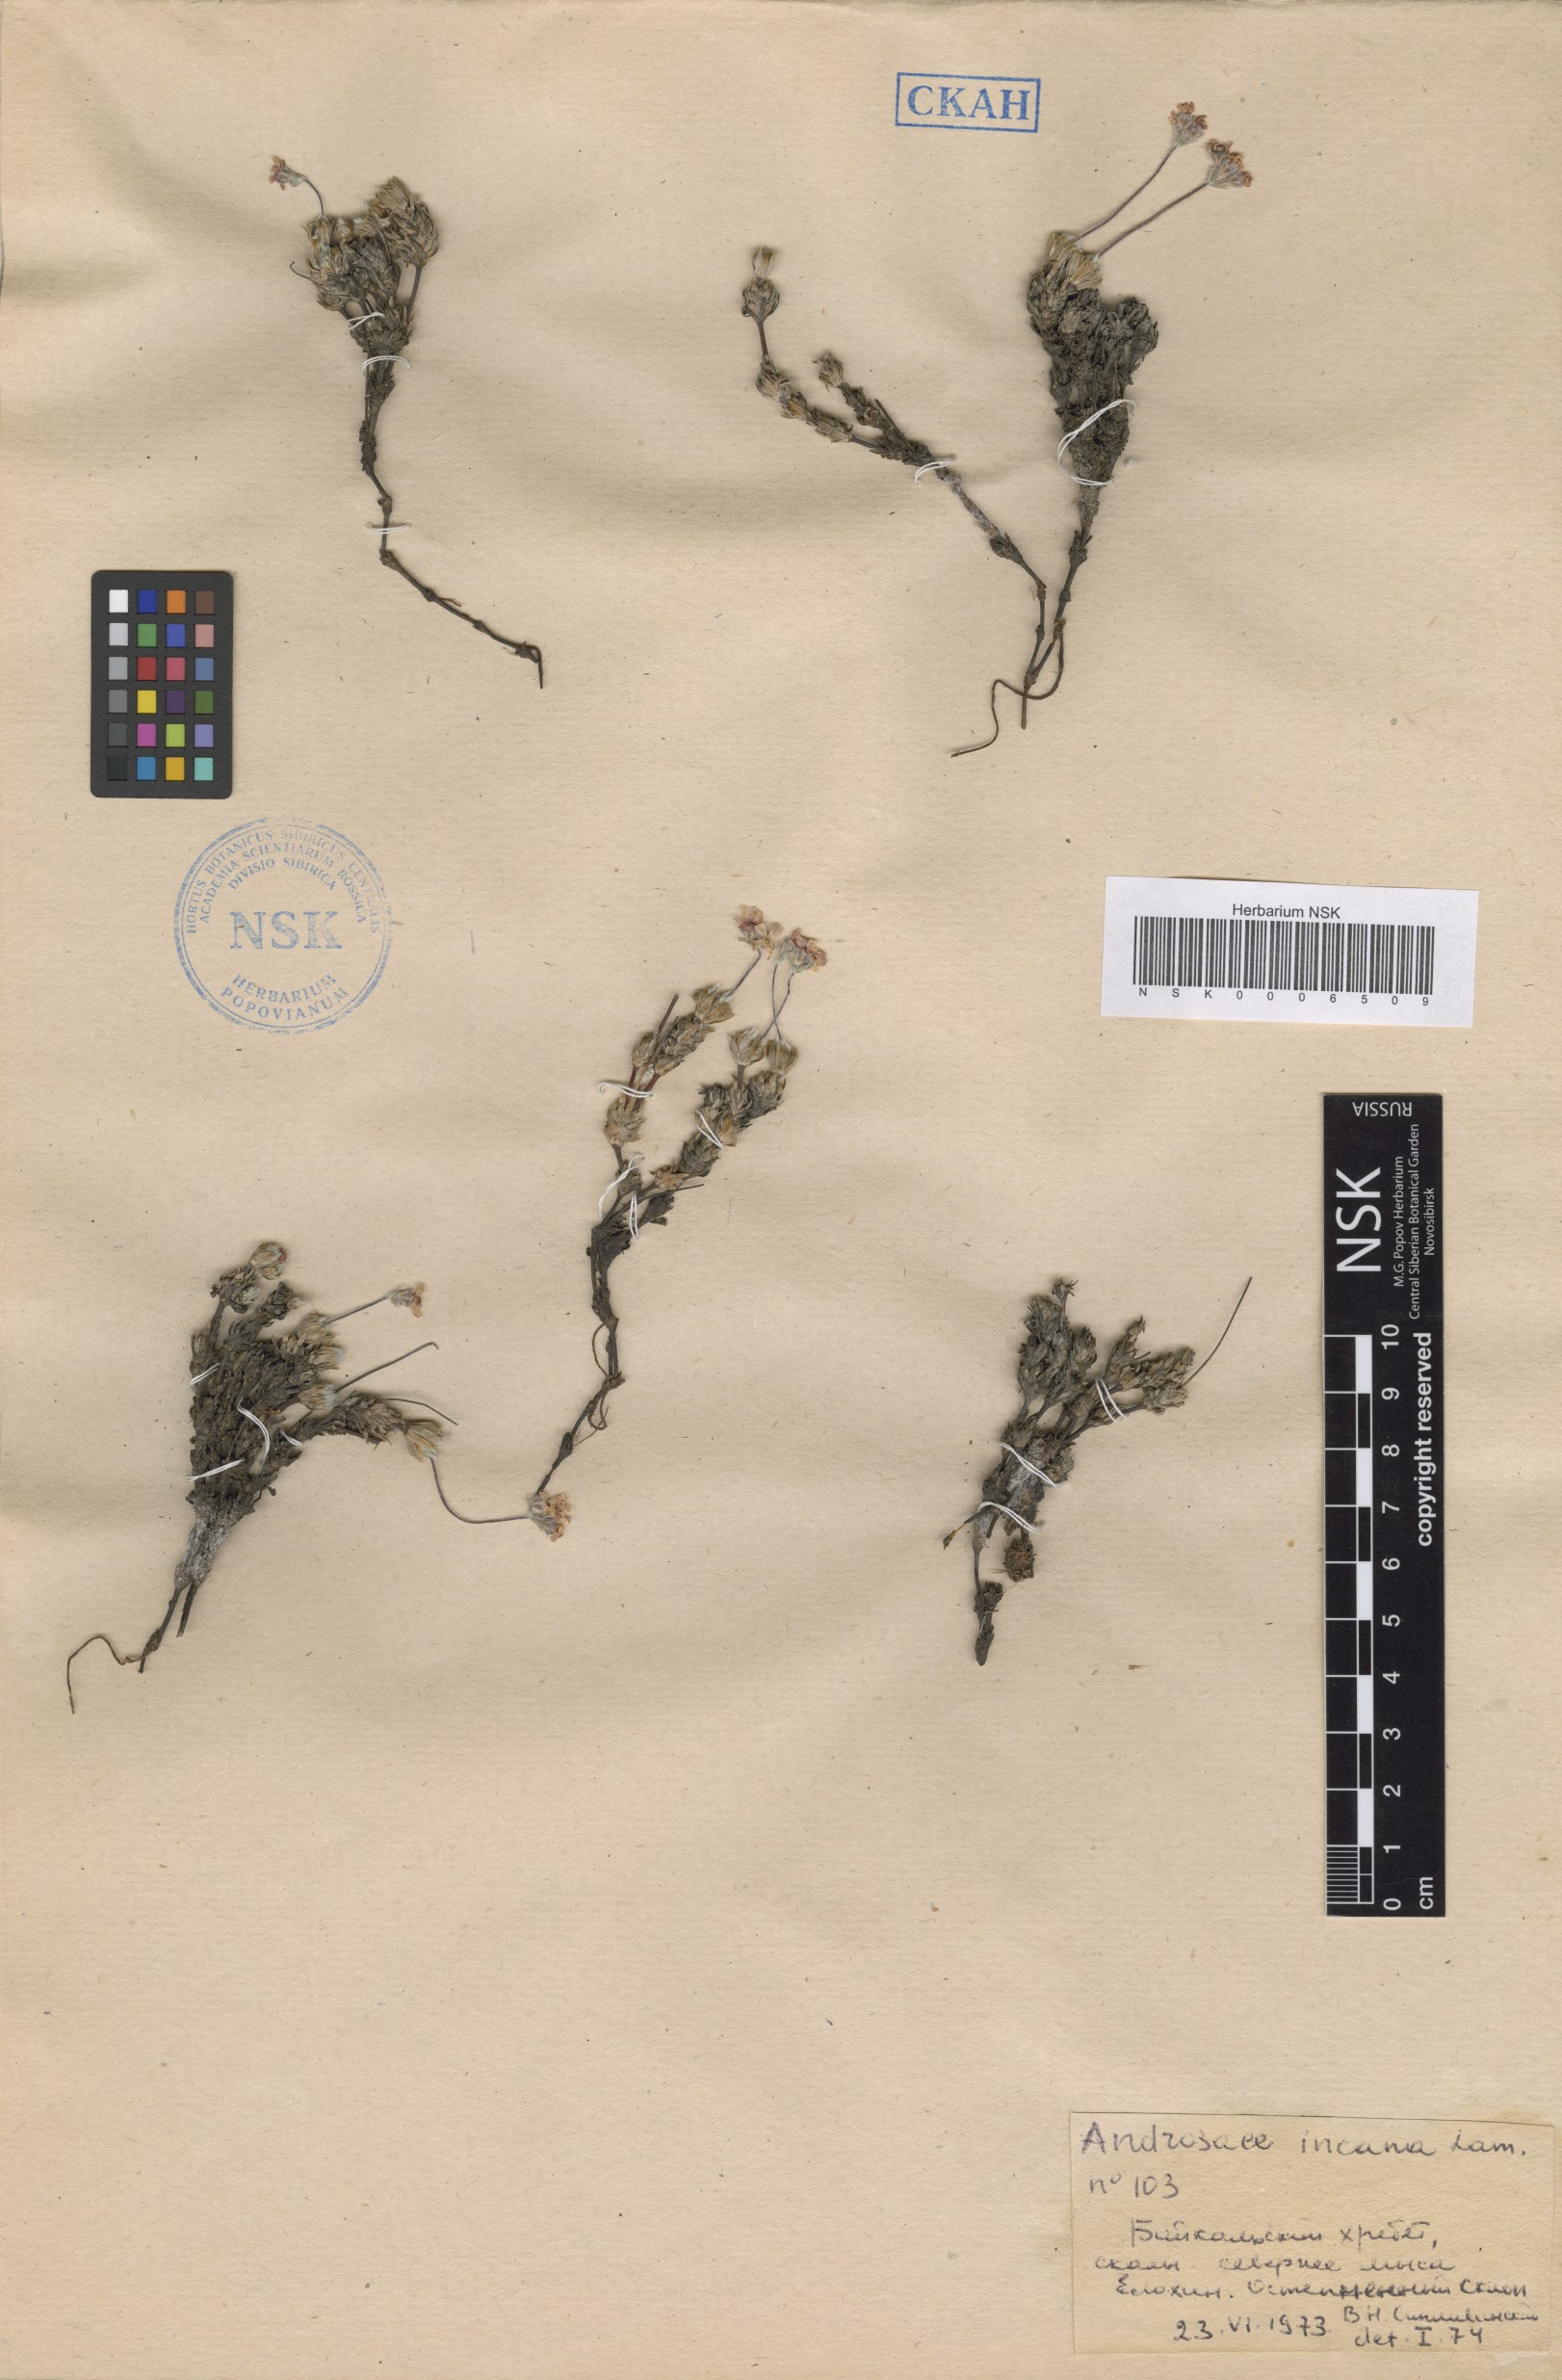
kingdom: Plantae
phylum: Tracheophyta
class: Magnoliopsida
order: Ericales
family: Primulaceae
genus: Androsace
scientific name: Androsace incana
